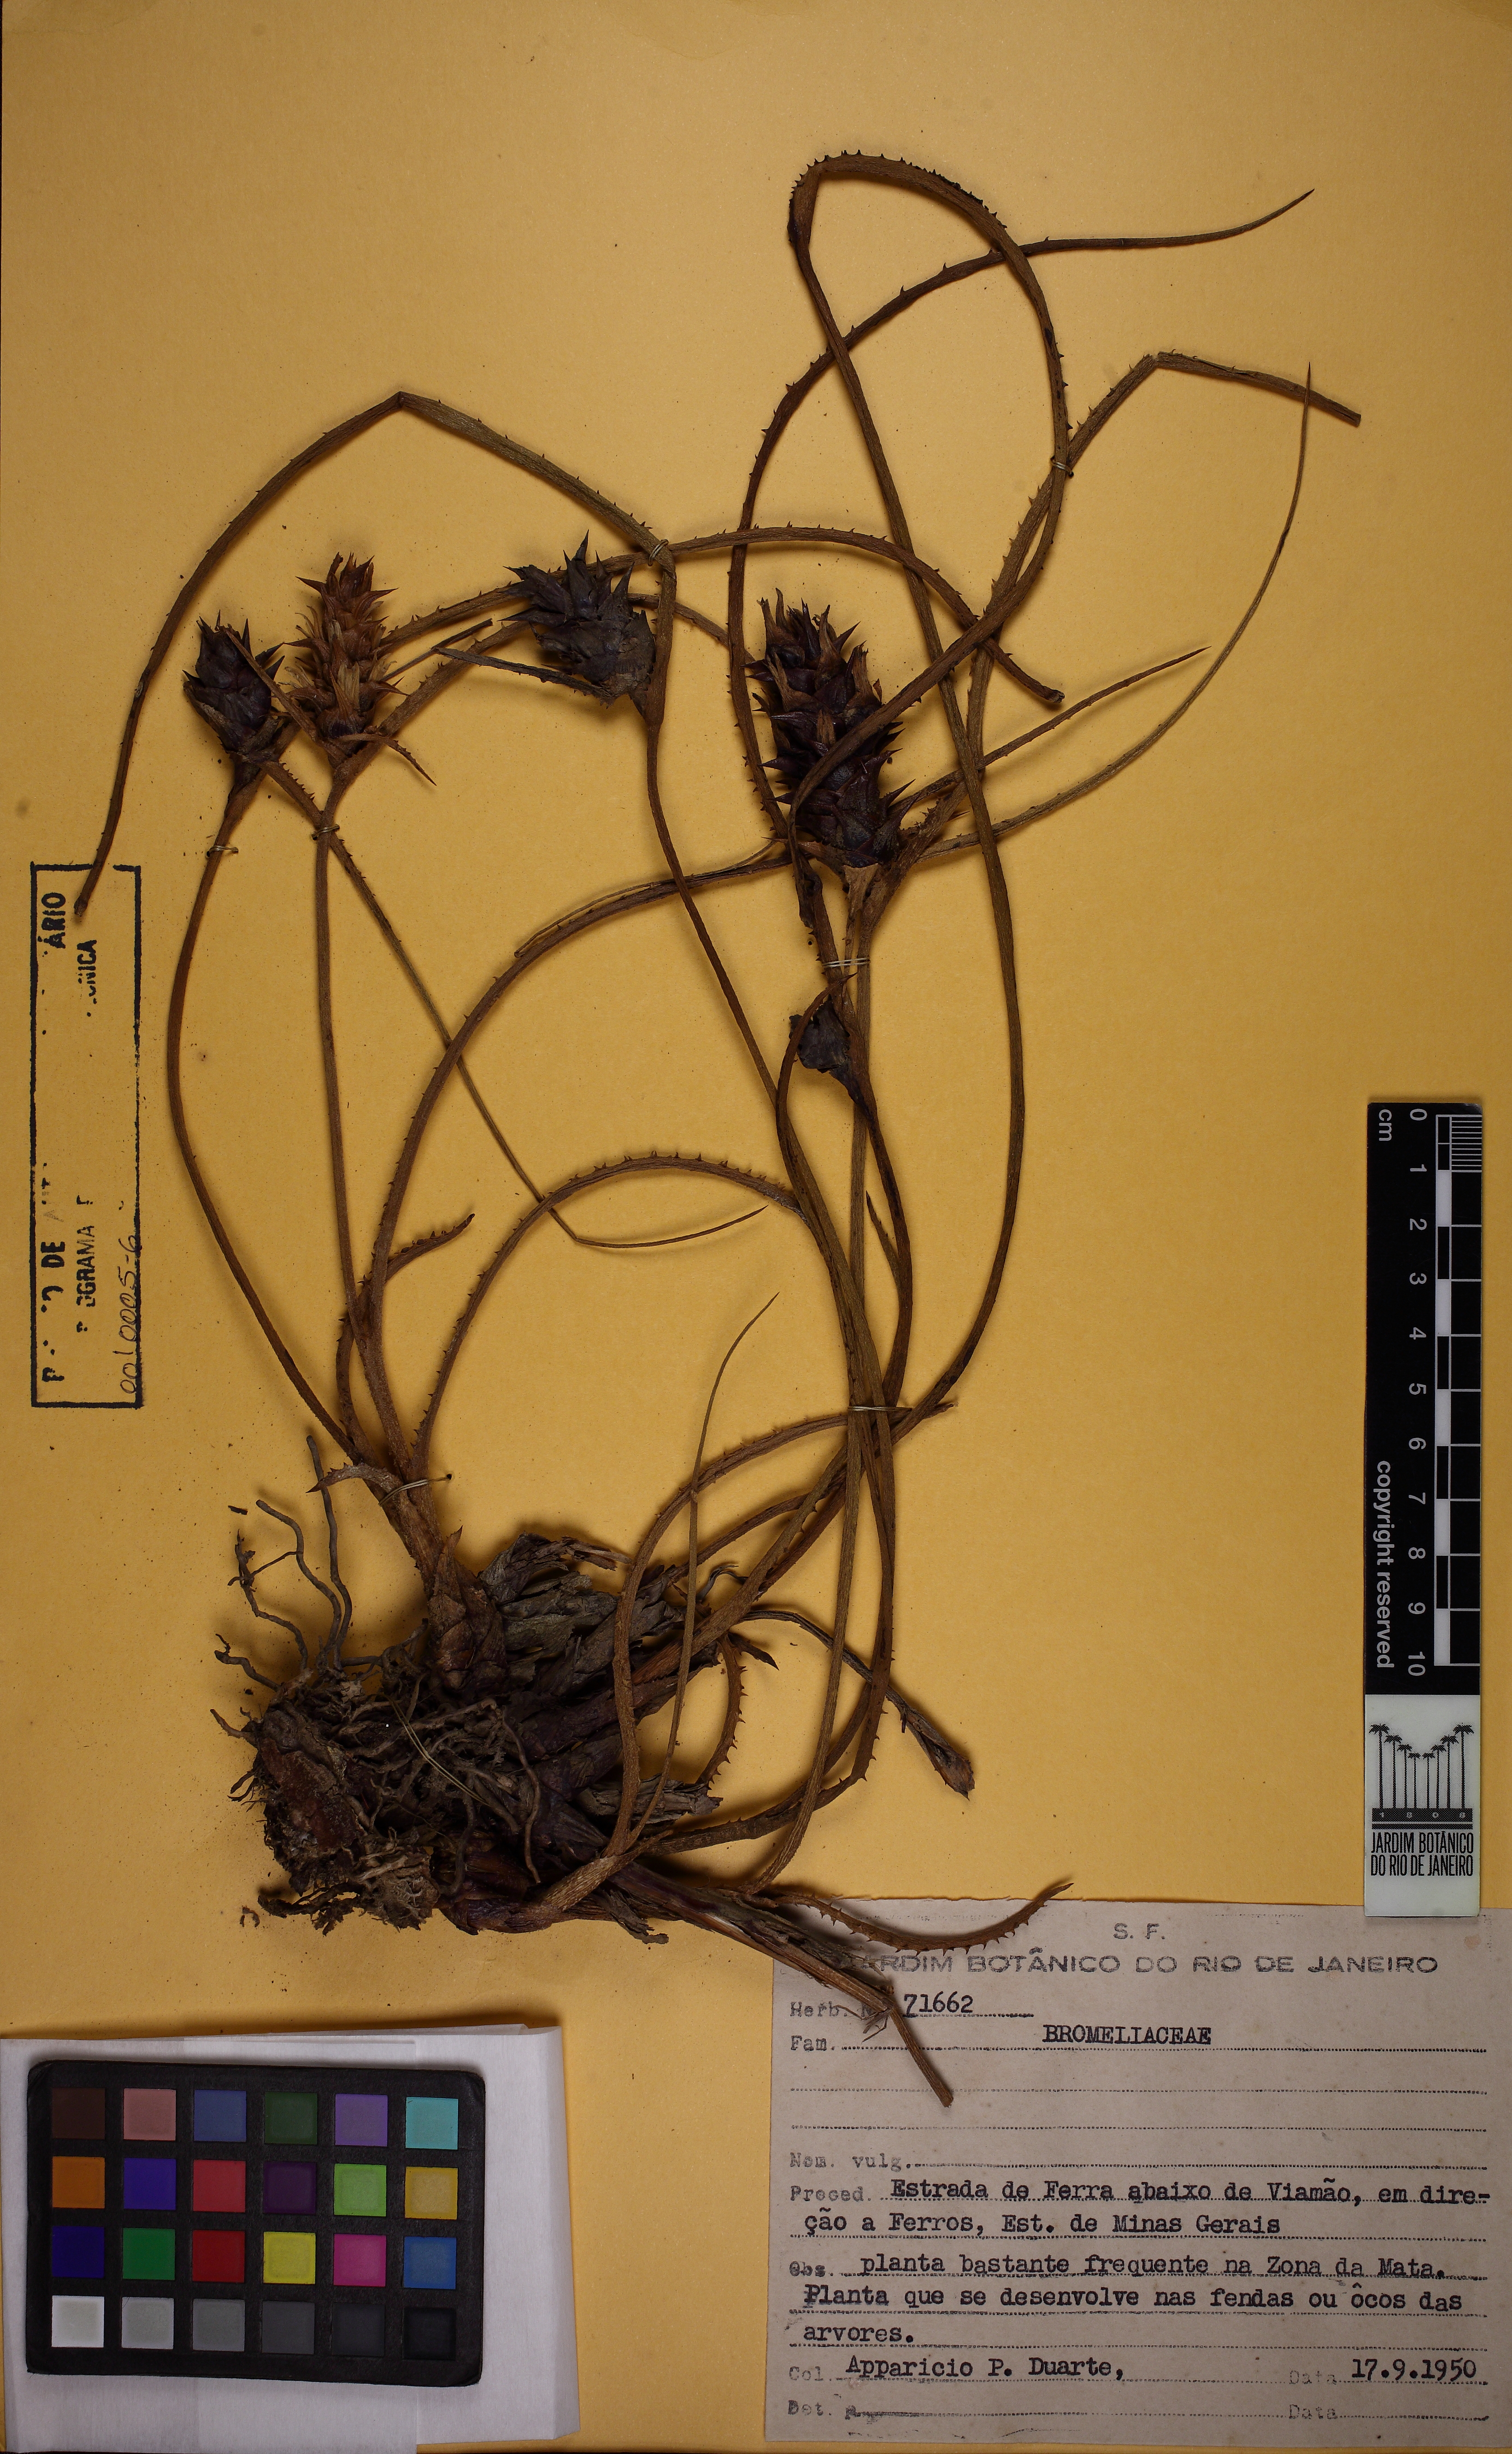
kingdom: Plantae
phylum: Tracheophyta
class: Liliopsida
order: Poales
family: Bromeliaceae
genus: Acanthostachys
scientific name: Acanthostachys strobilacea
